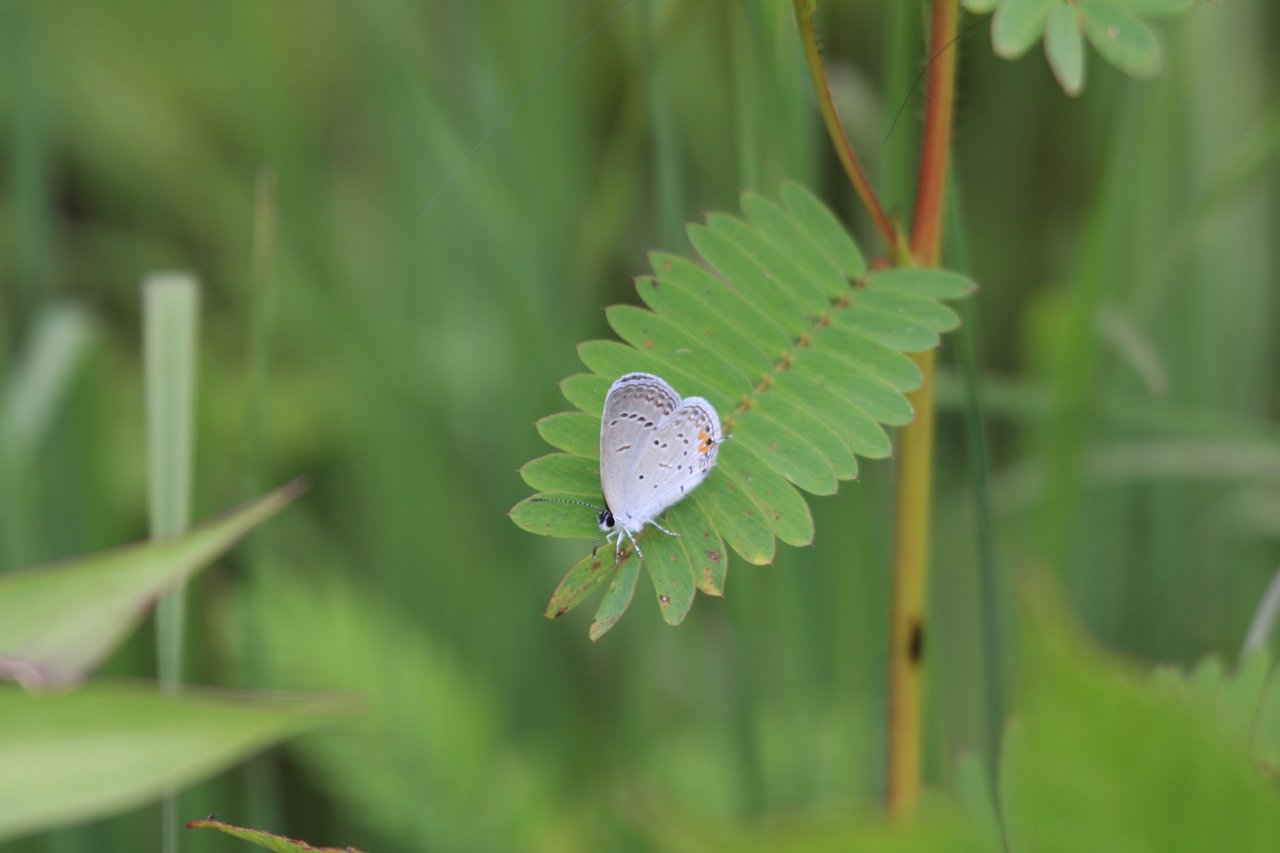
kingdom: Animalia
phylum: Arthropoda
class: Insecta
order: Lepidoptera
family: Lycaenidae
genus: Elkalyce
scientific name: Elkalyce comyntas
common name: Eastern Tailed-Blue
